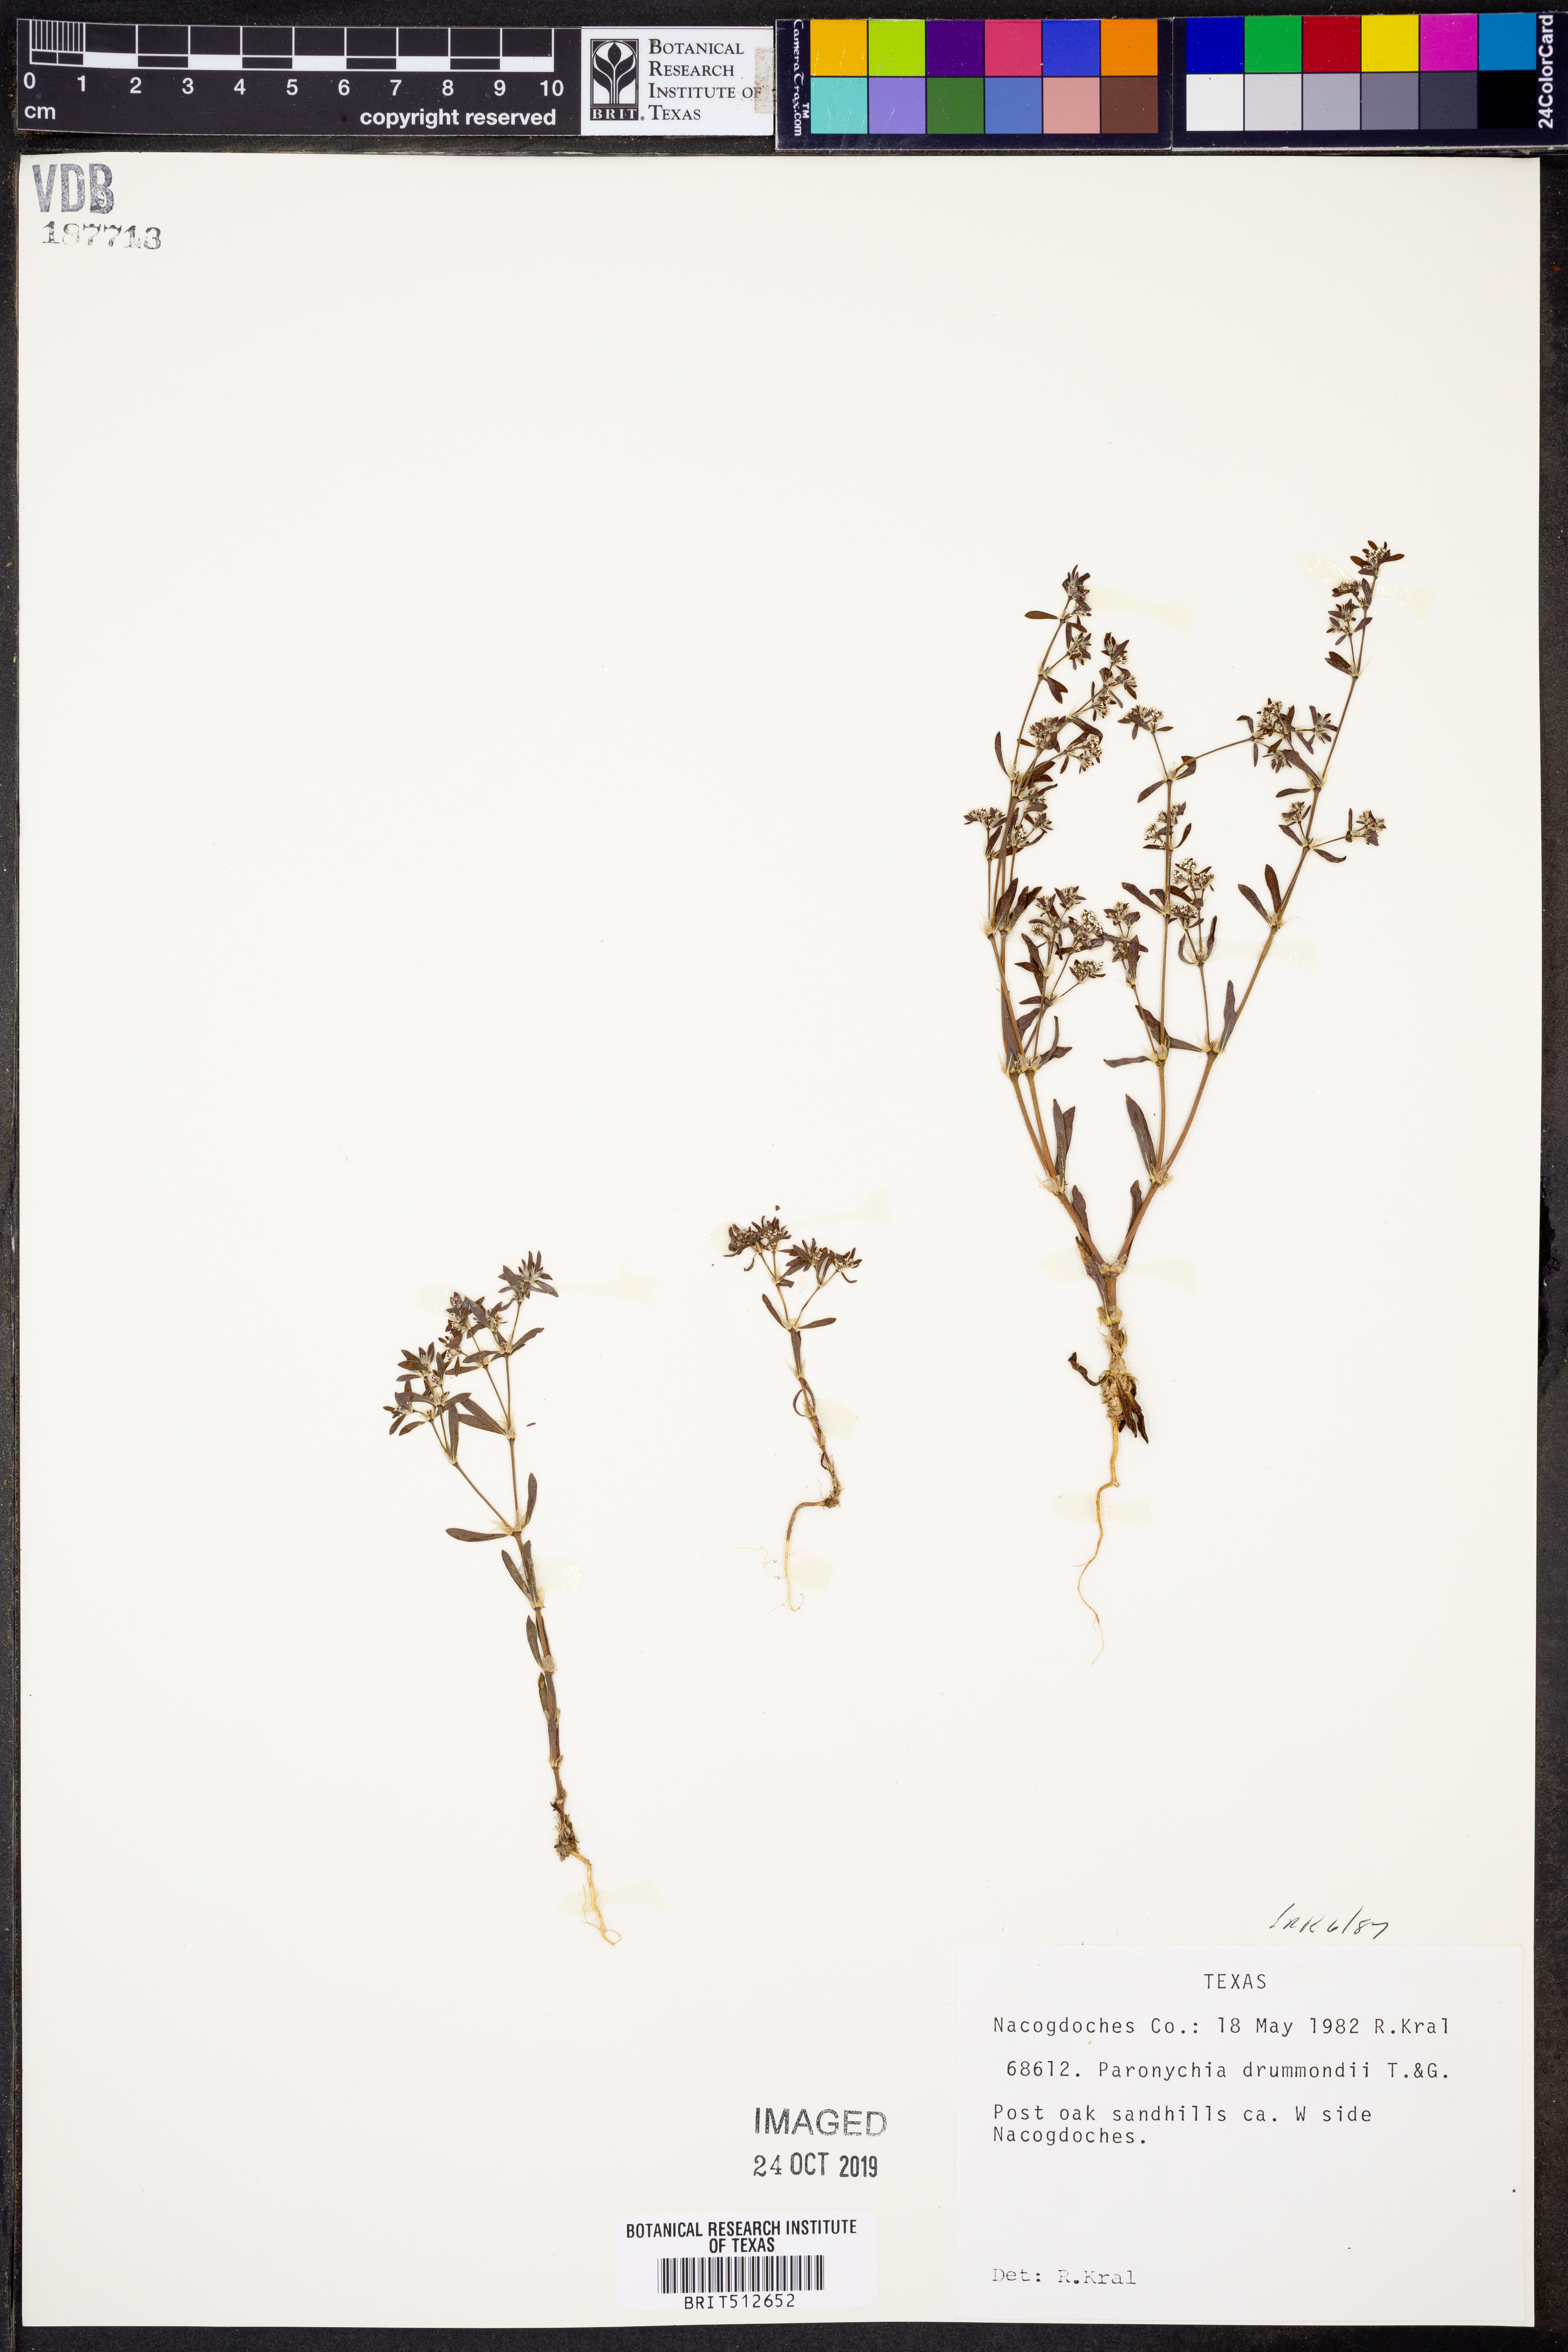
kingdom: Plantae
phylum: Tracheophyta
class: Magnoliopsida
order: Caryophyllales
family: Caryophyllaceae
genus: Paronychia
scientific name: Paronychia drummondii
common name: Drummond's nailwort
